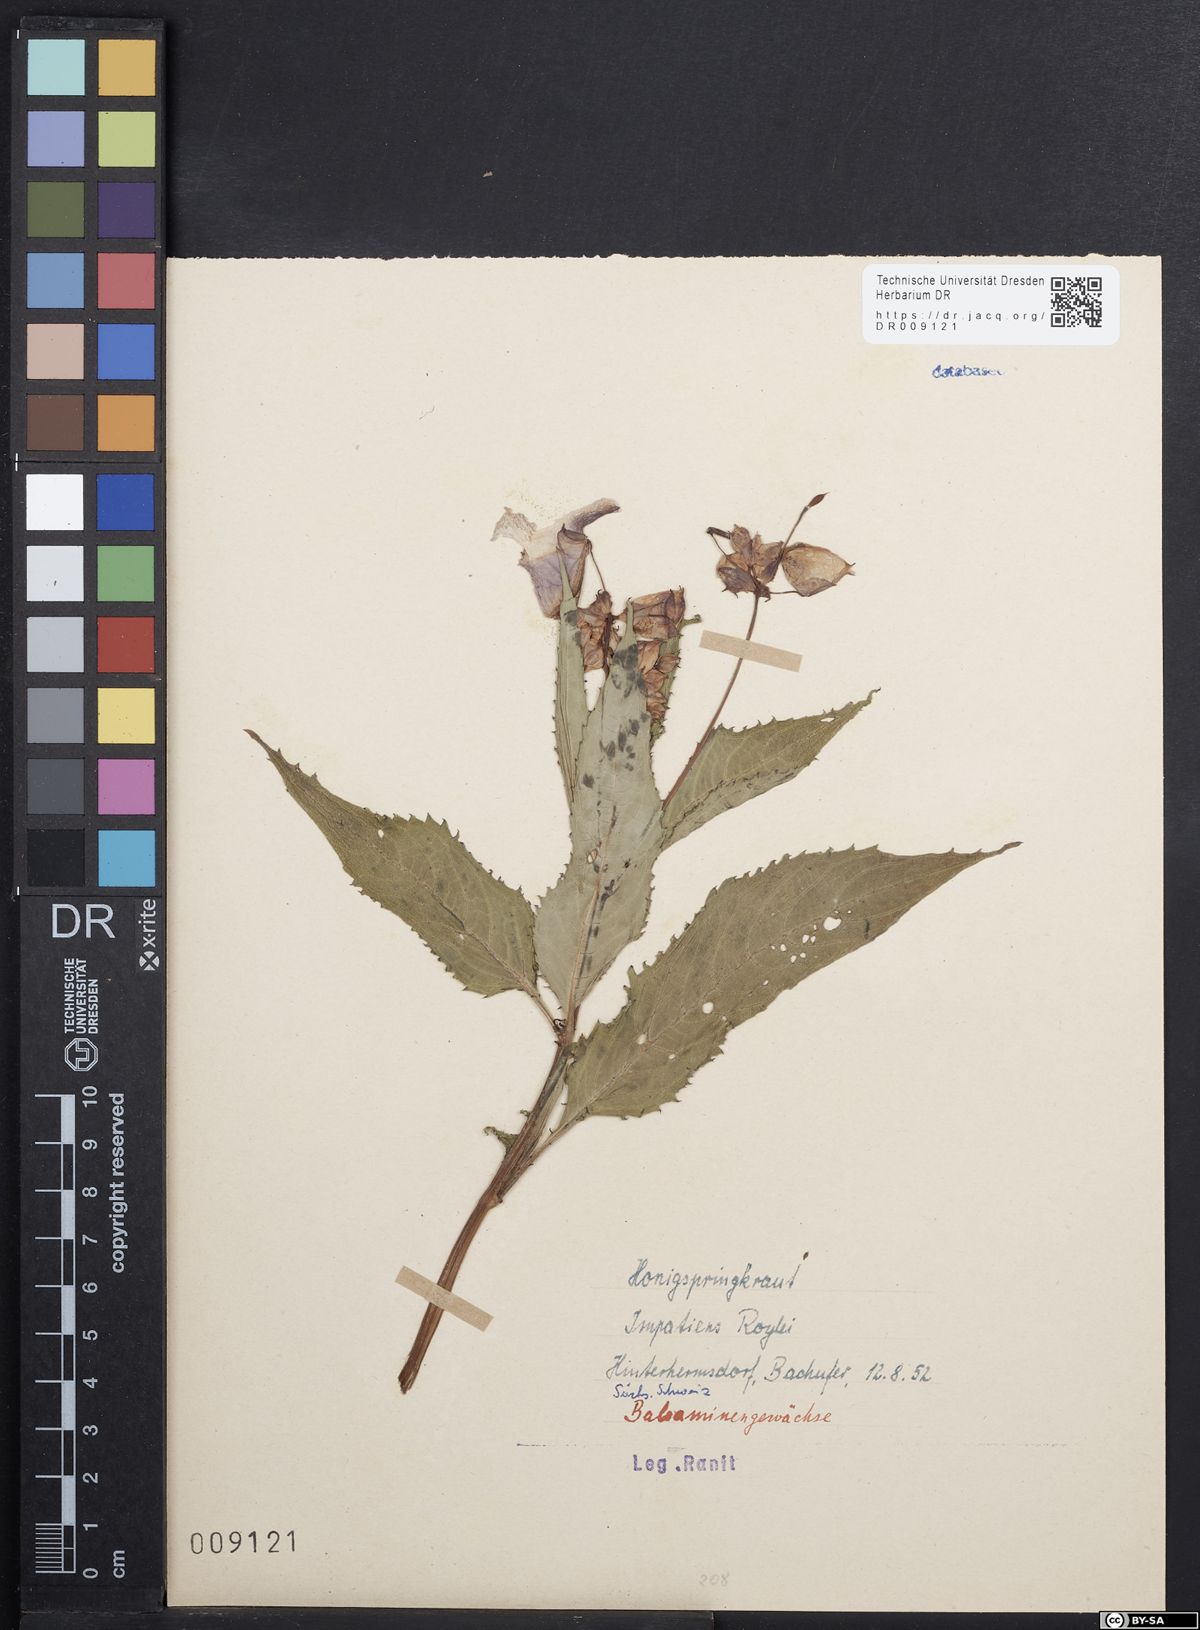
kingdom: Plantae
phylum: Tracheophyta
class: Magnoliopsida
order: Ericales
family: Balsaminaceae
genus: Impatiens
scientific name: Impatiens glandulifera
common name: Himalayan balsam
